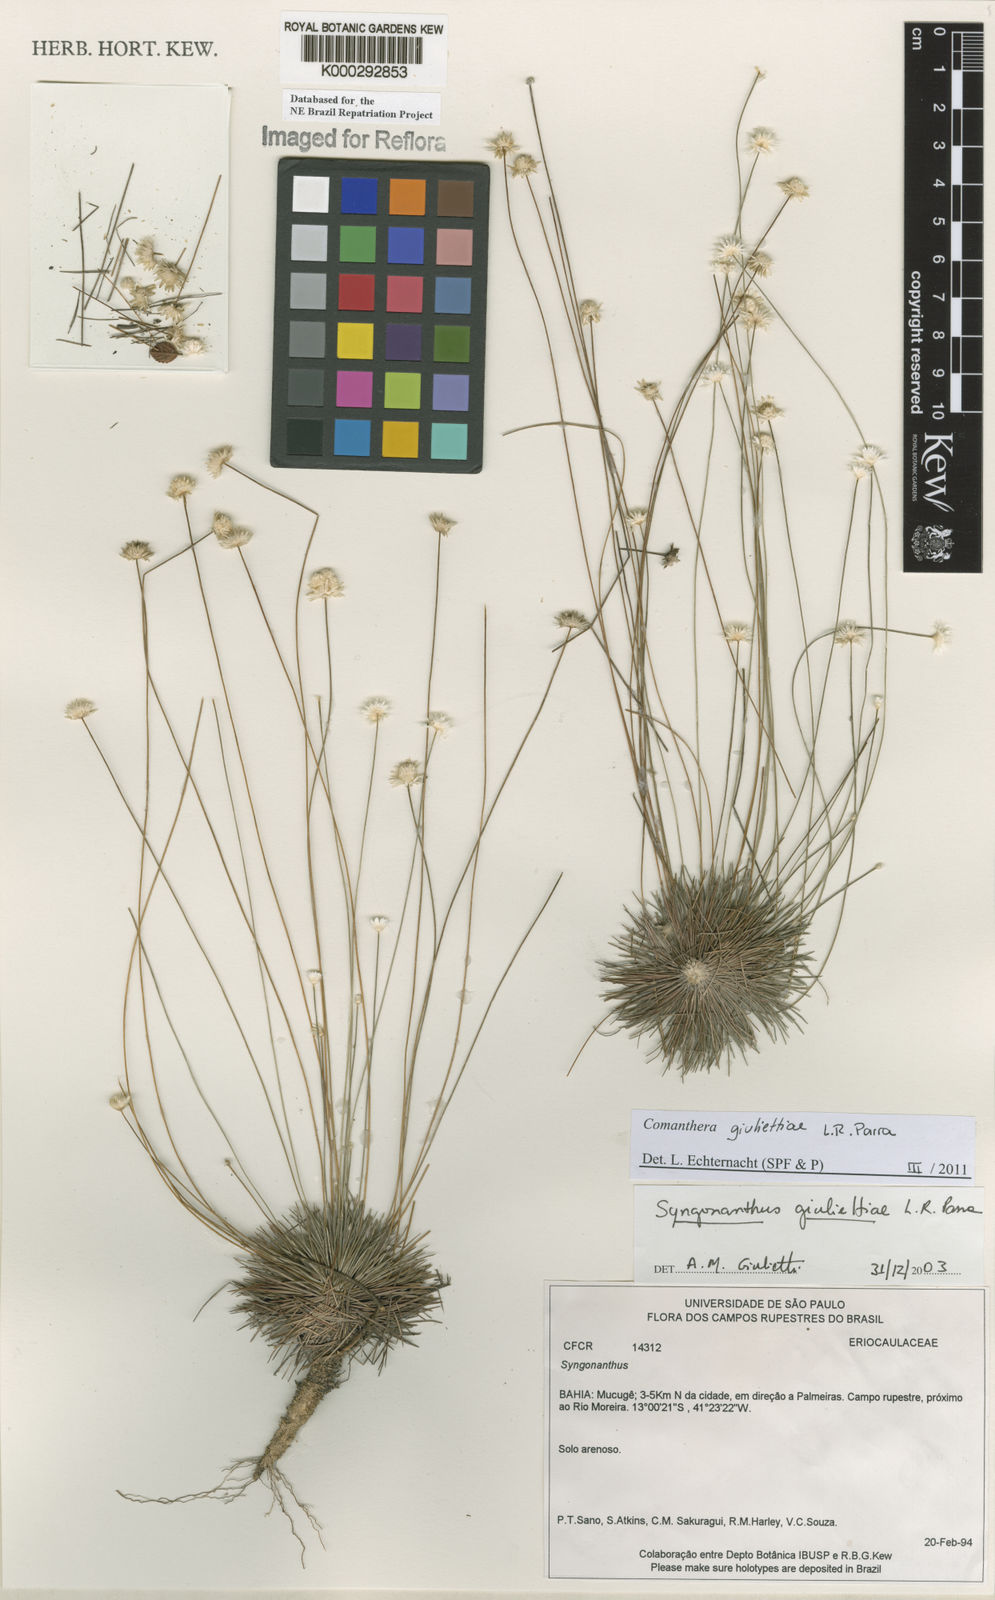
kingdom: Plantae
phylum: Tracheophyta
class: Liliopsida
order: Poales
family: Eriocaulaceae
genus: Syngonanthus
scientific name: Syngonanthus
